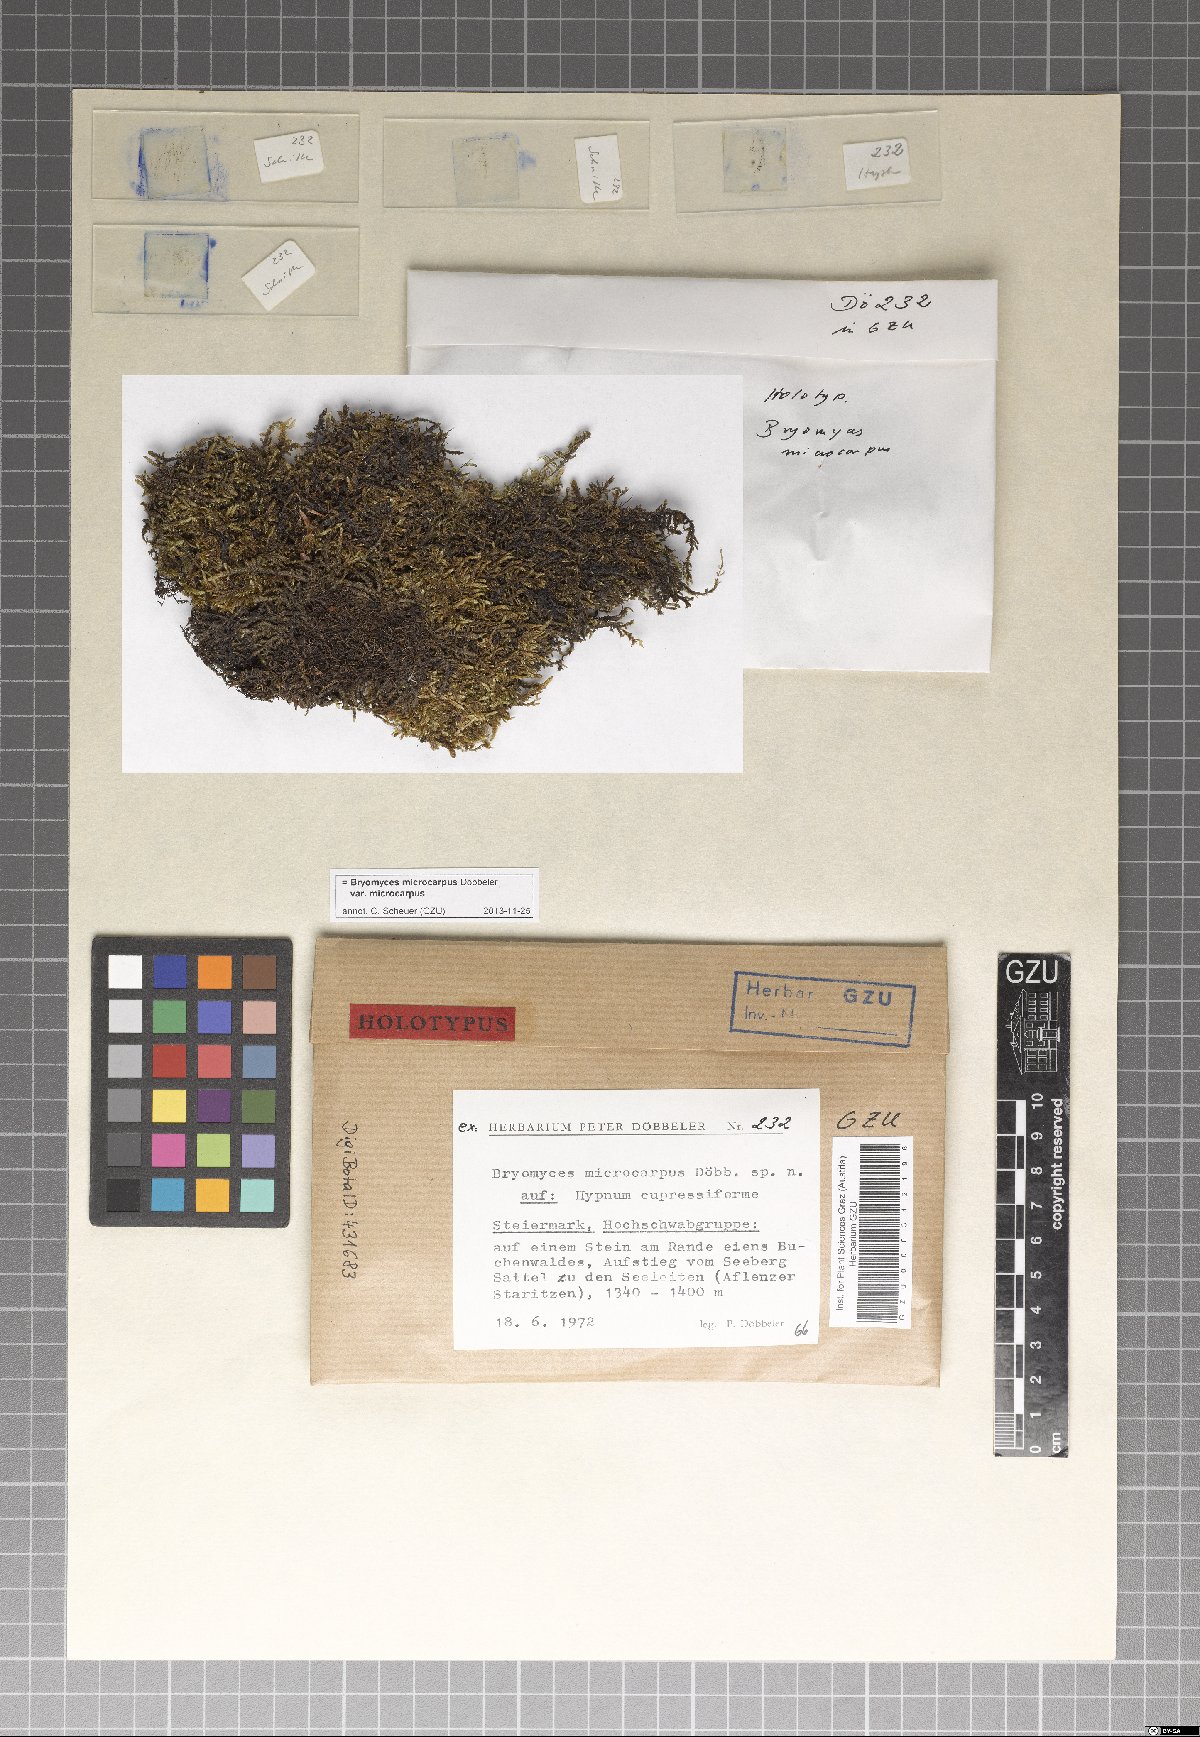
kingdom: Fungi
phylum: Ascomycota
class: Dothideomycetes
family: Pseudoperisporiaceae
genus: Bryomyces
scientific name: Bryomyces microcarpus
